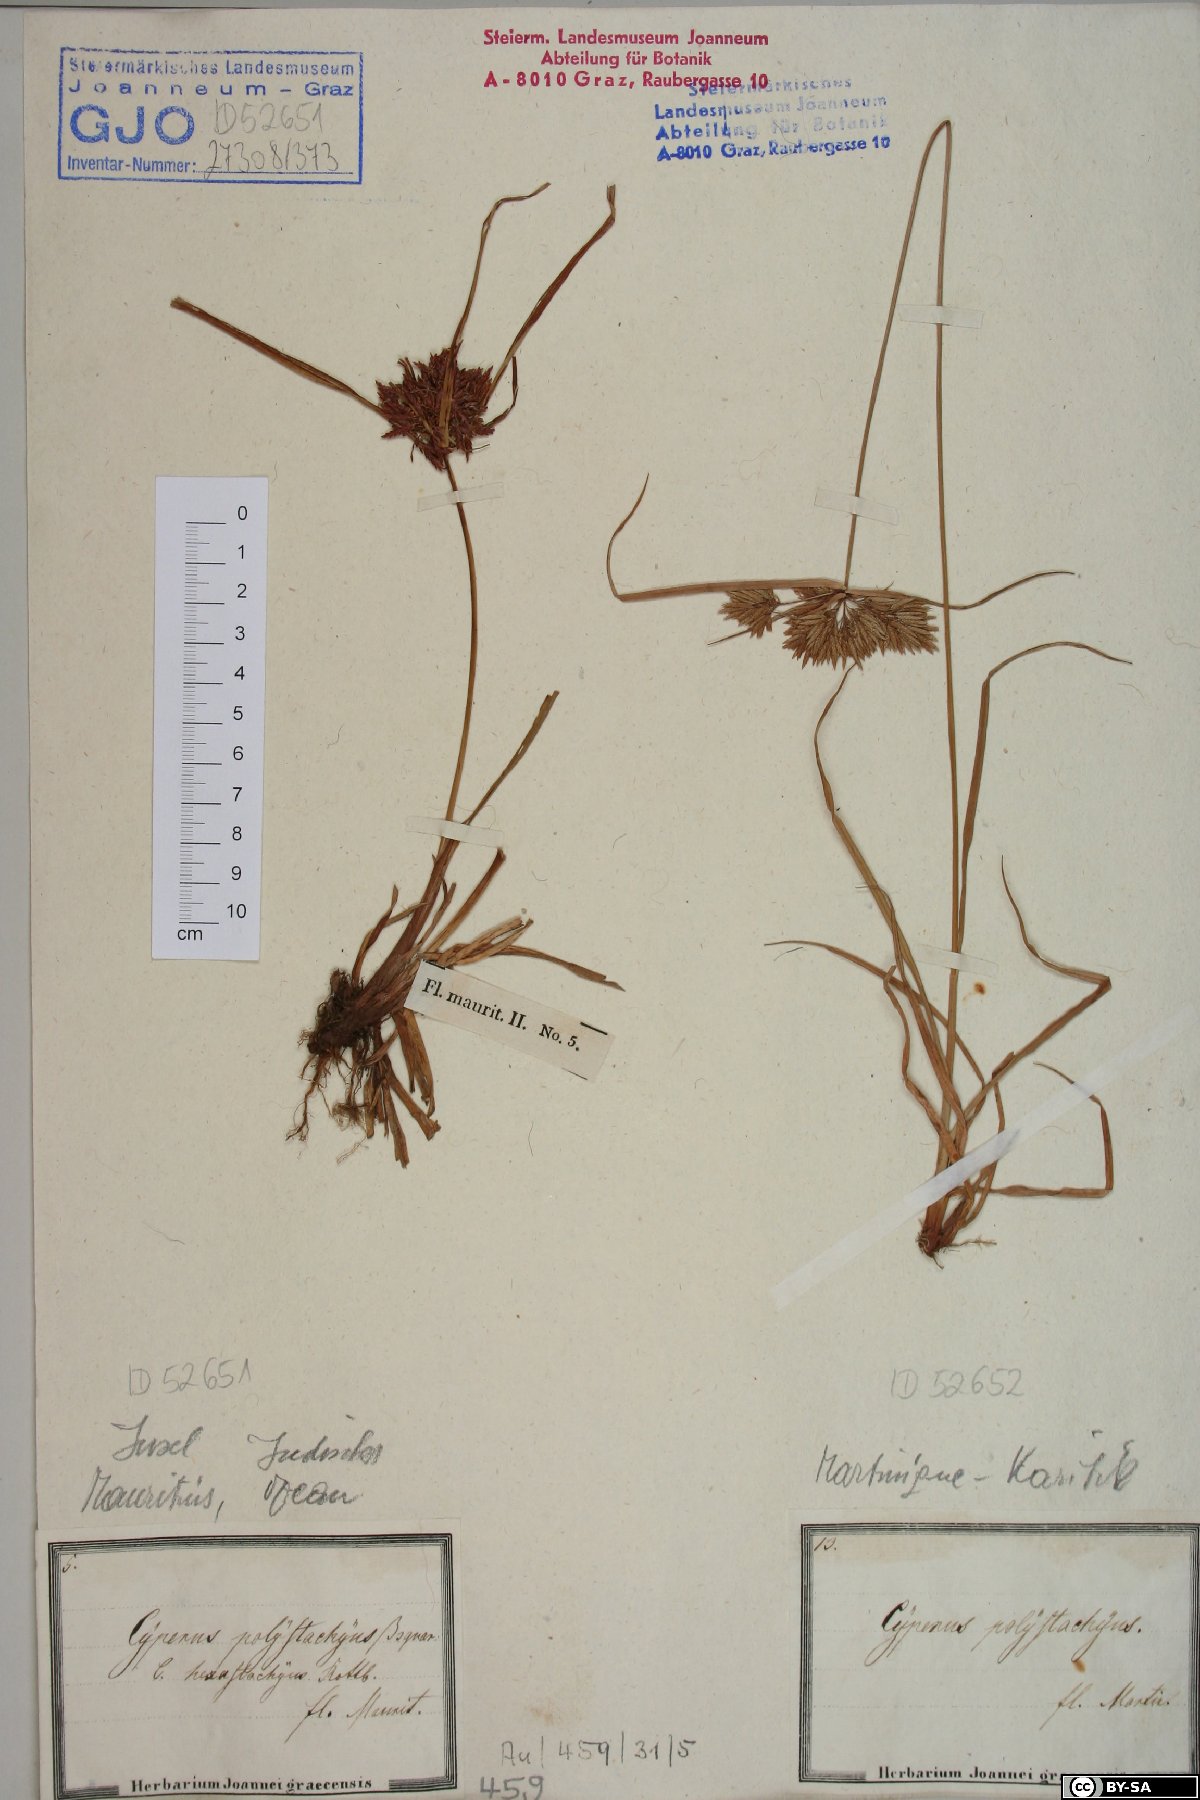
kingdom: Plantae
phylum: Tracheophyta
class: Liliopsida
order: Poales
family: Cyperaceae
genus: Cyperus
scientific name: Cyperus polystachyos
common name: Bunchy flat sedge
